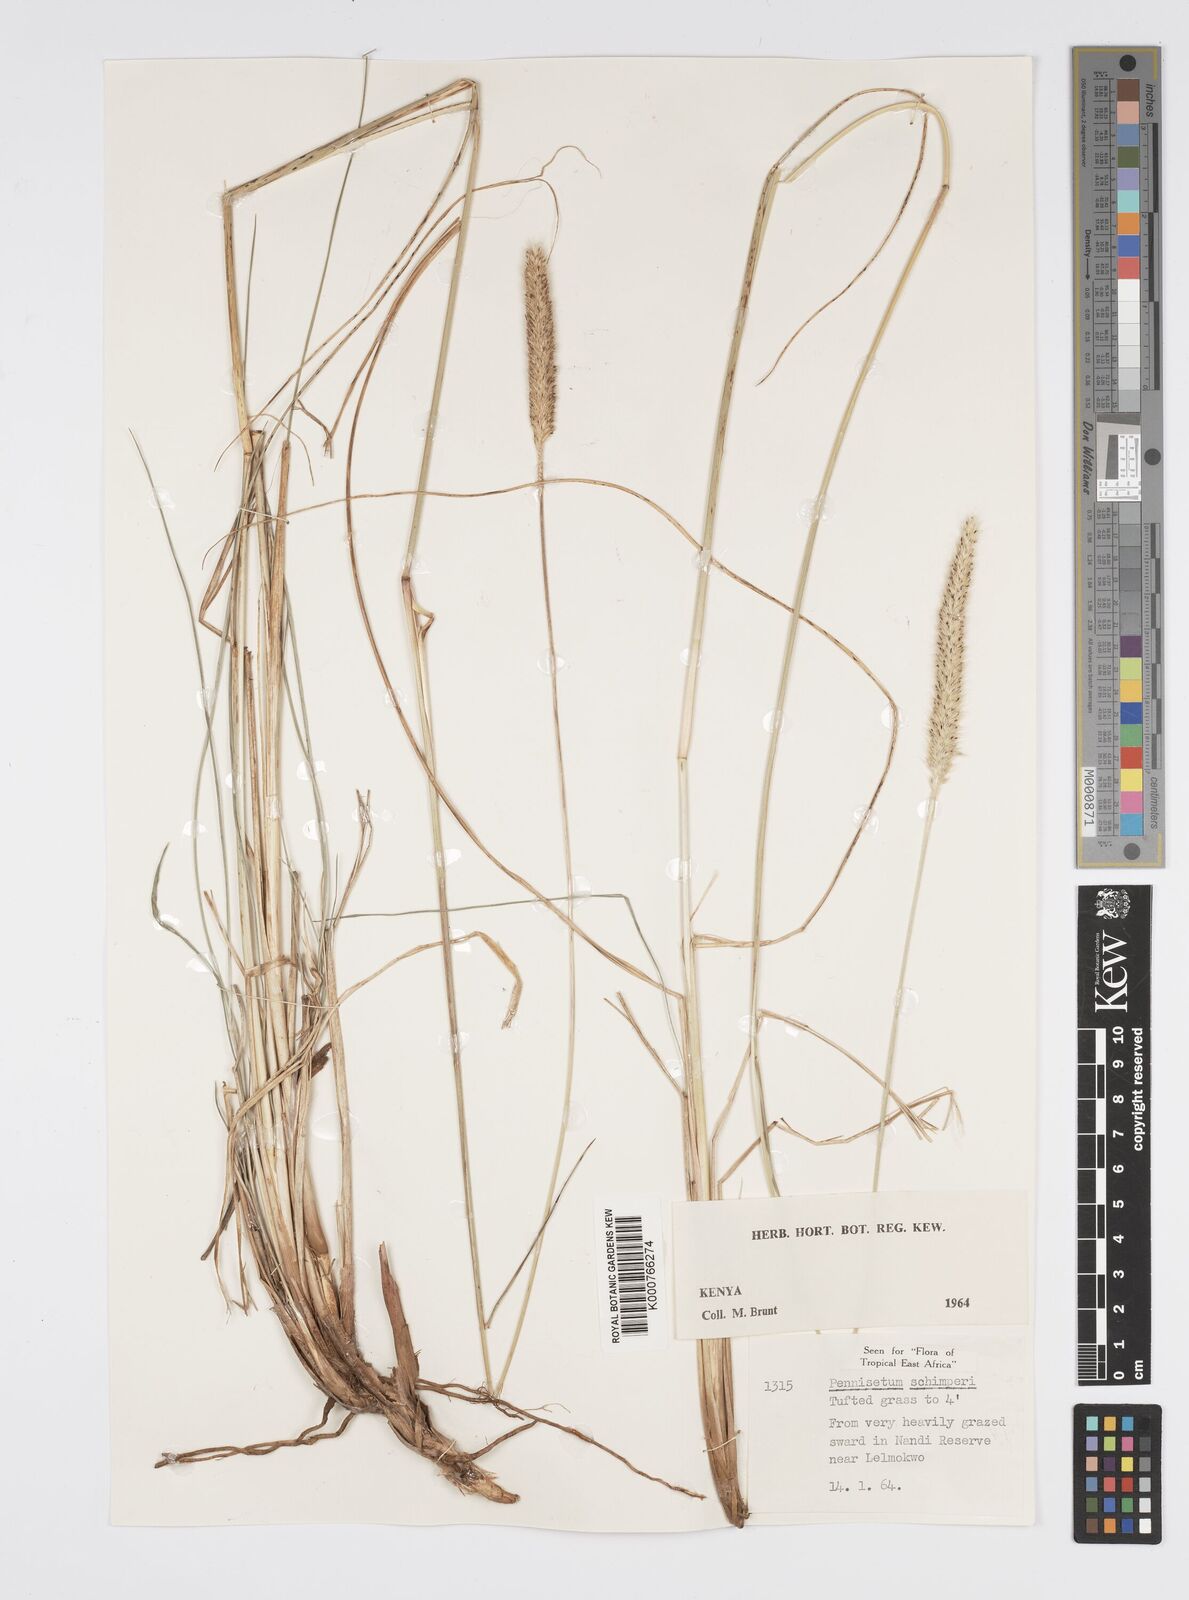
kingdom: Plantae
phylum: Tracheophyta
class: Liliopsida
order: Poales
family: Poaceae
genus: Cenchrus
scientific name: Cenchrus sphacelatus
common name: Bulgras
